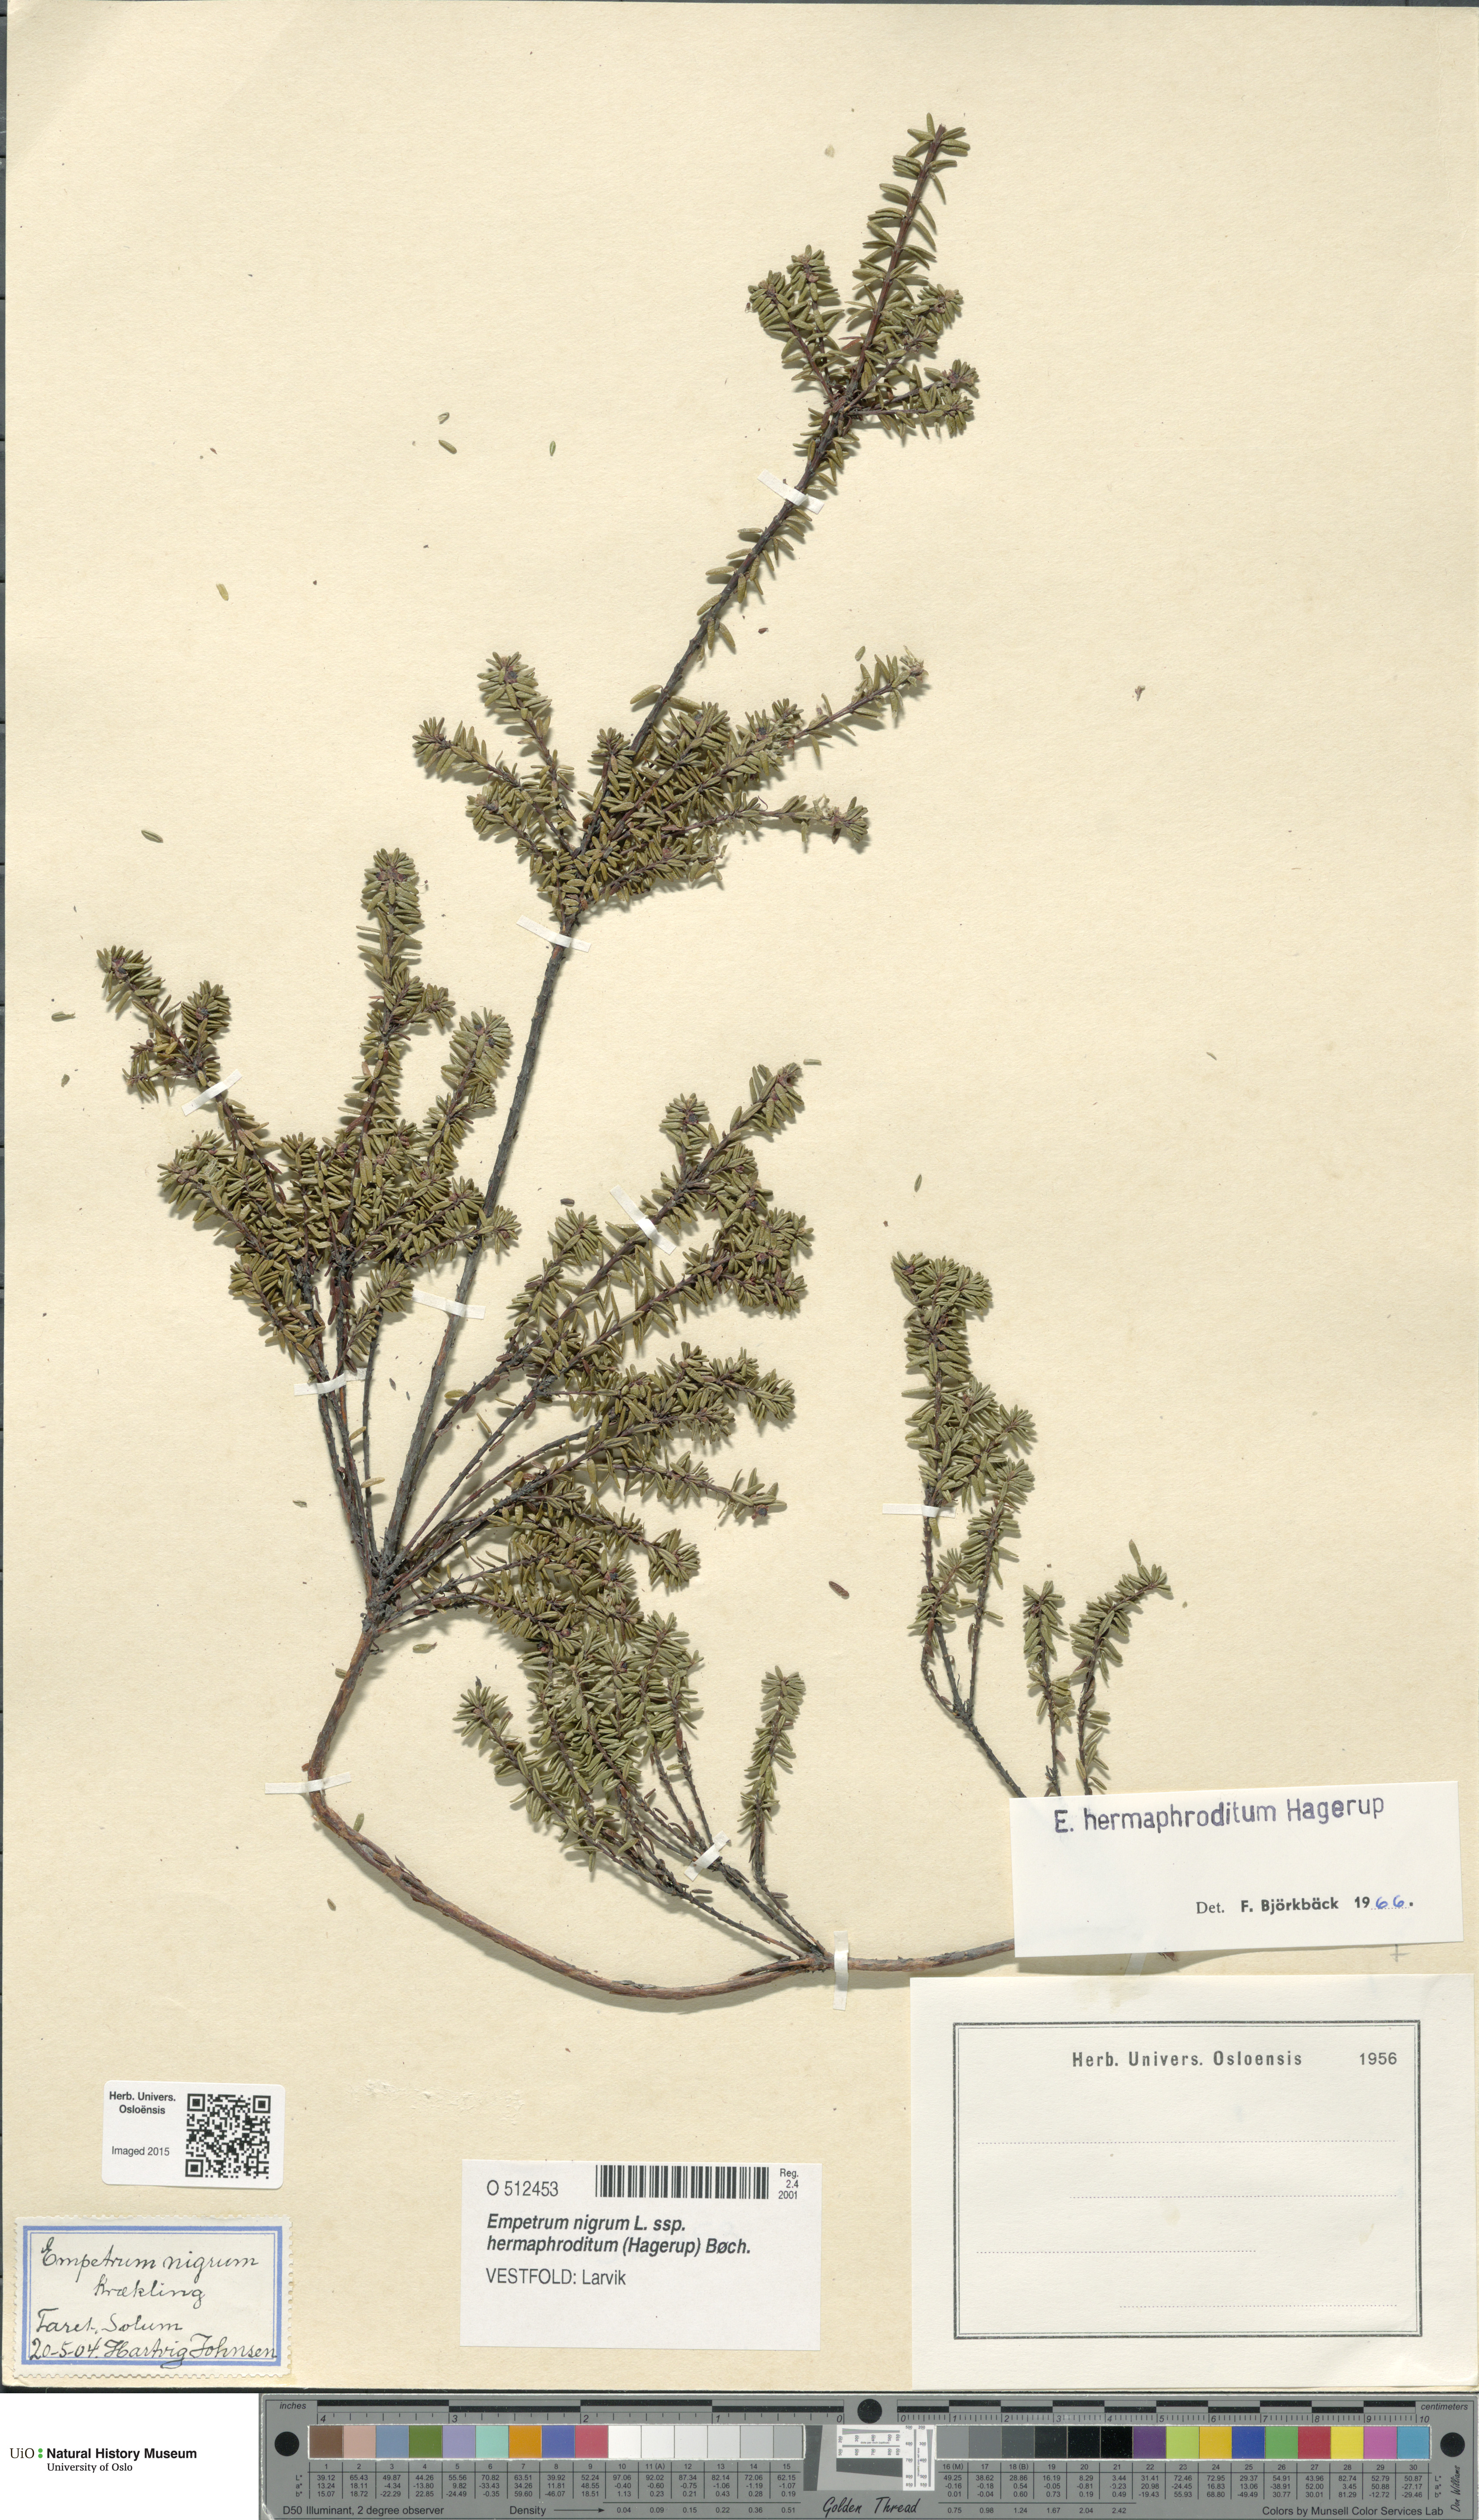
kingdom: Plantae
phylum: Tracheophyta
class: Magnoliopsida
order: Ericales
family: Ericaceae
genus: Empetrum
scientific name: Empetrum hermaphroditum
